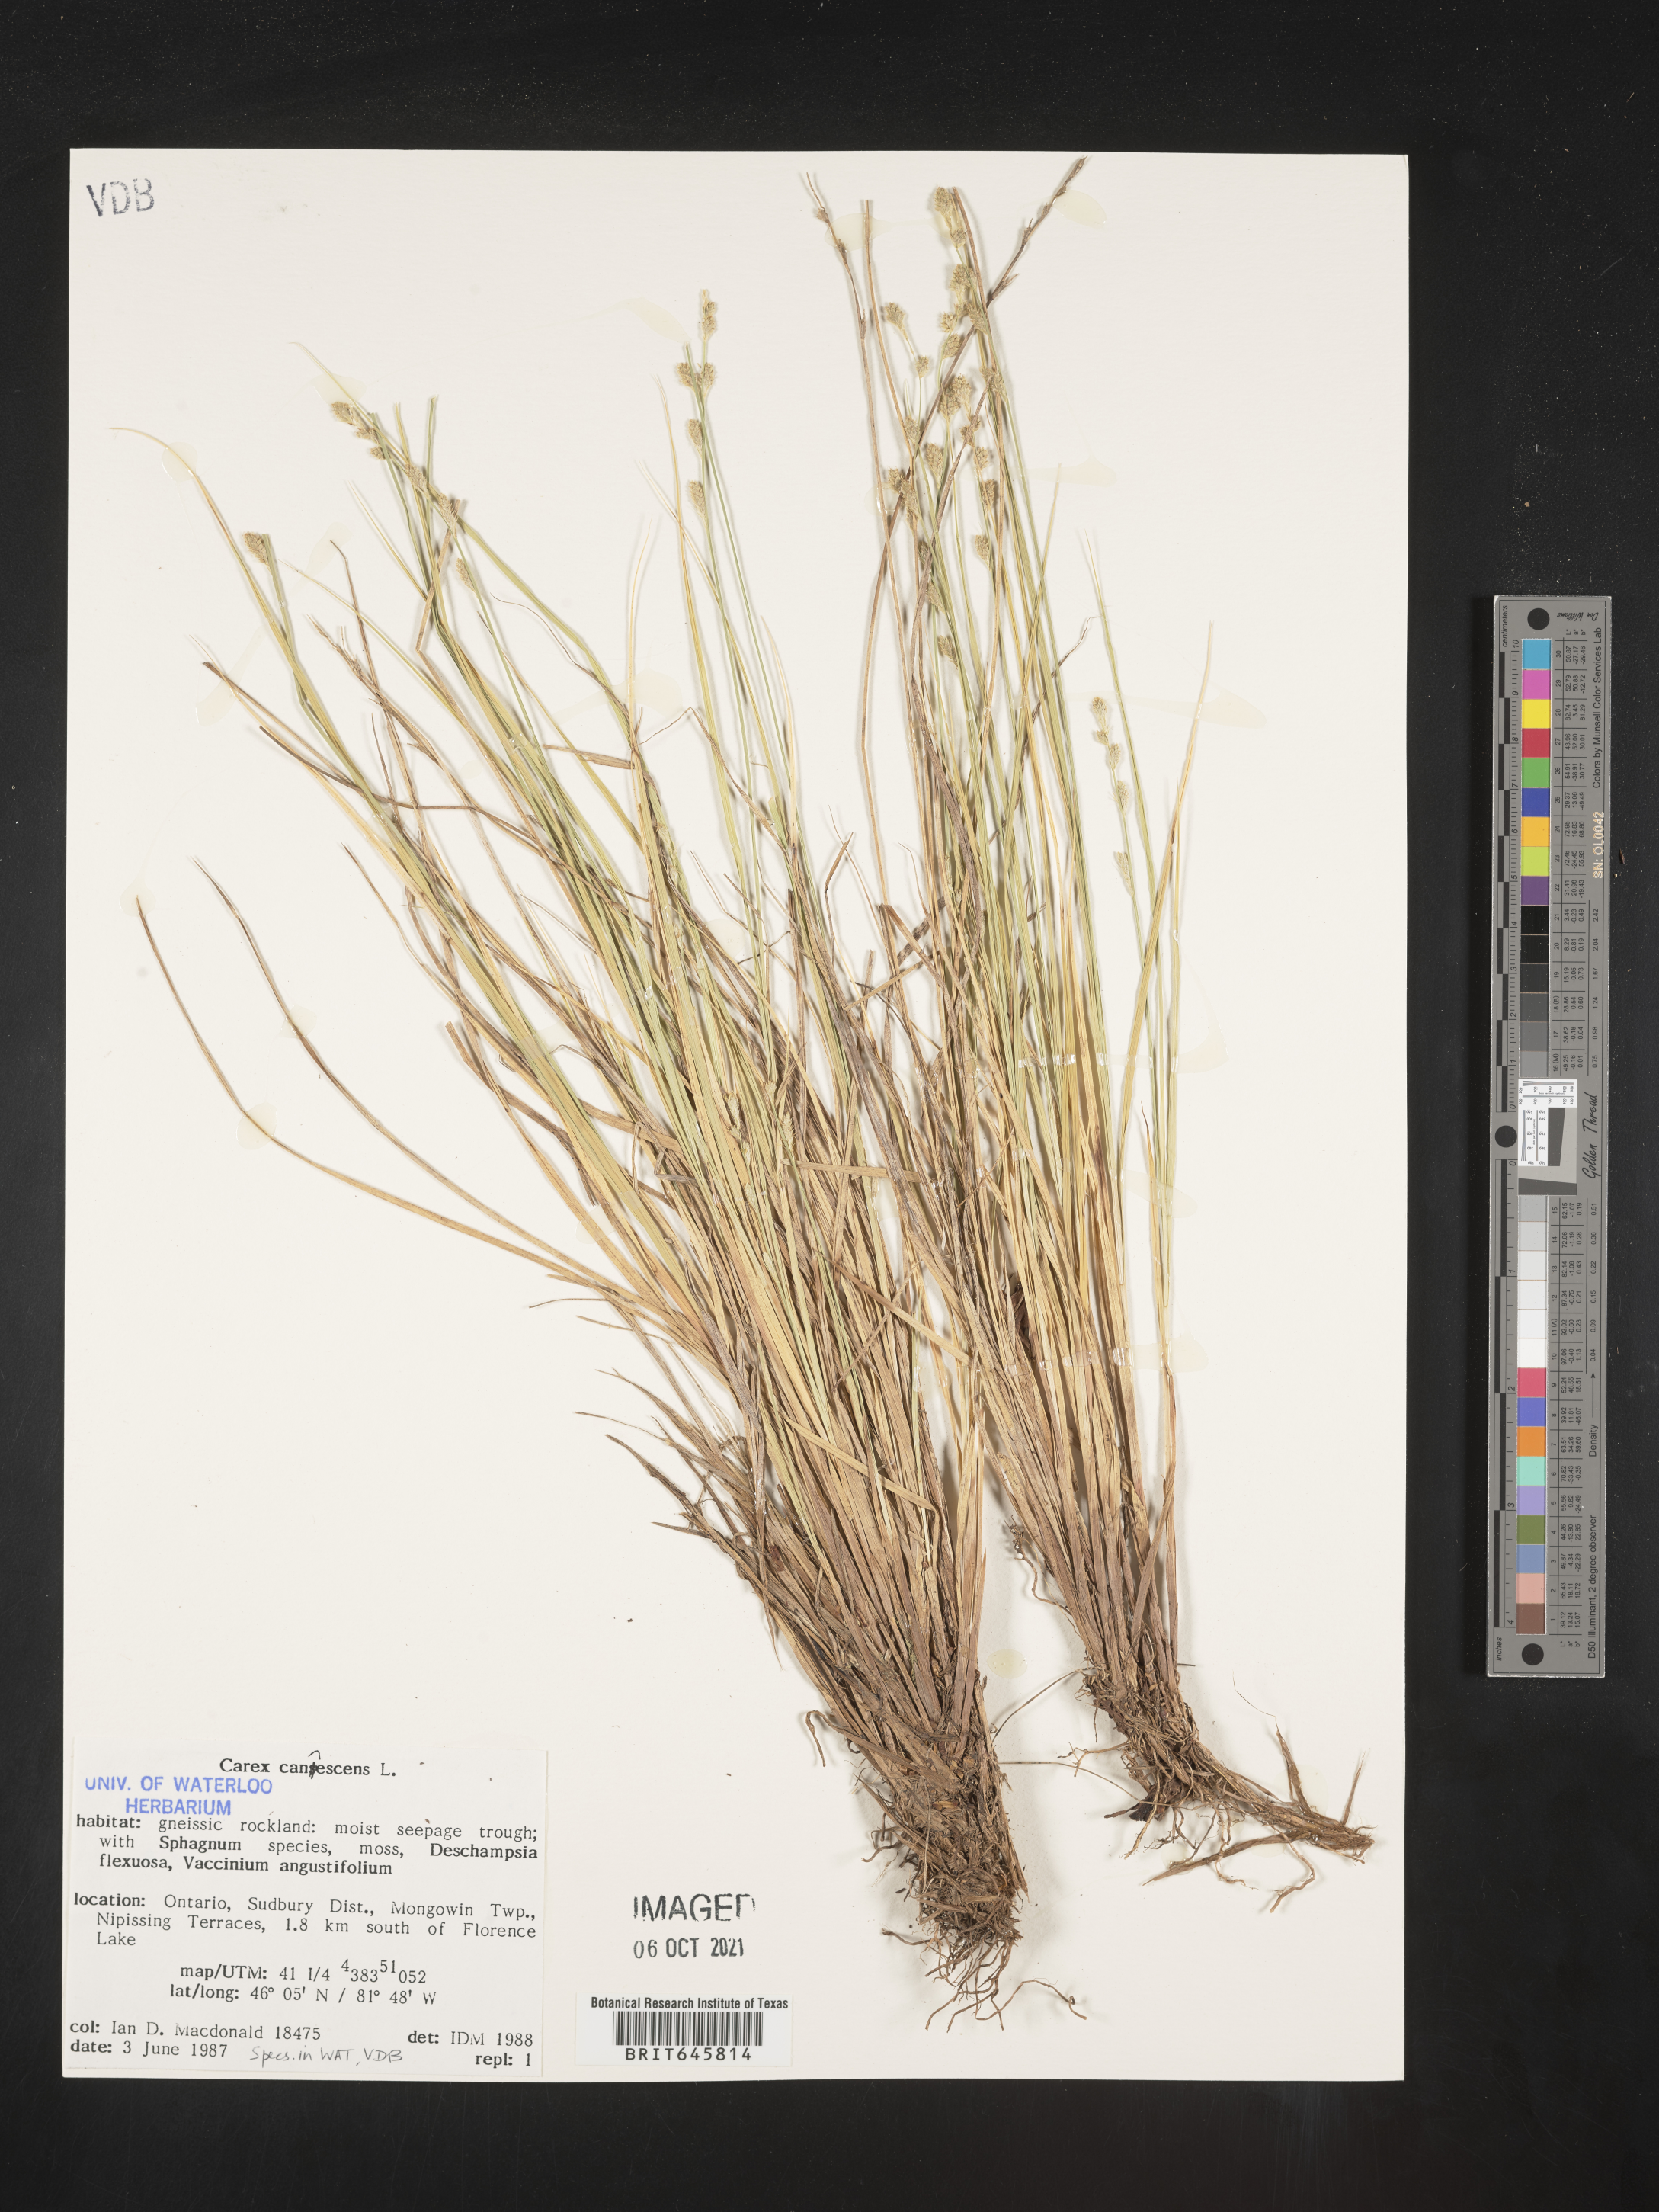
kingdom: Plantae
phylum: Tracheophyta
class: Liliopsida
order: Poales
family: Cyperaceae
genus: Carex
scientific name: Carex canescens
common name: White sedge
